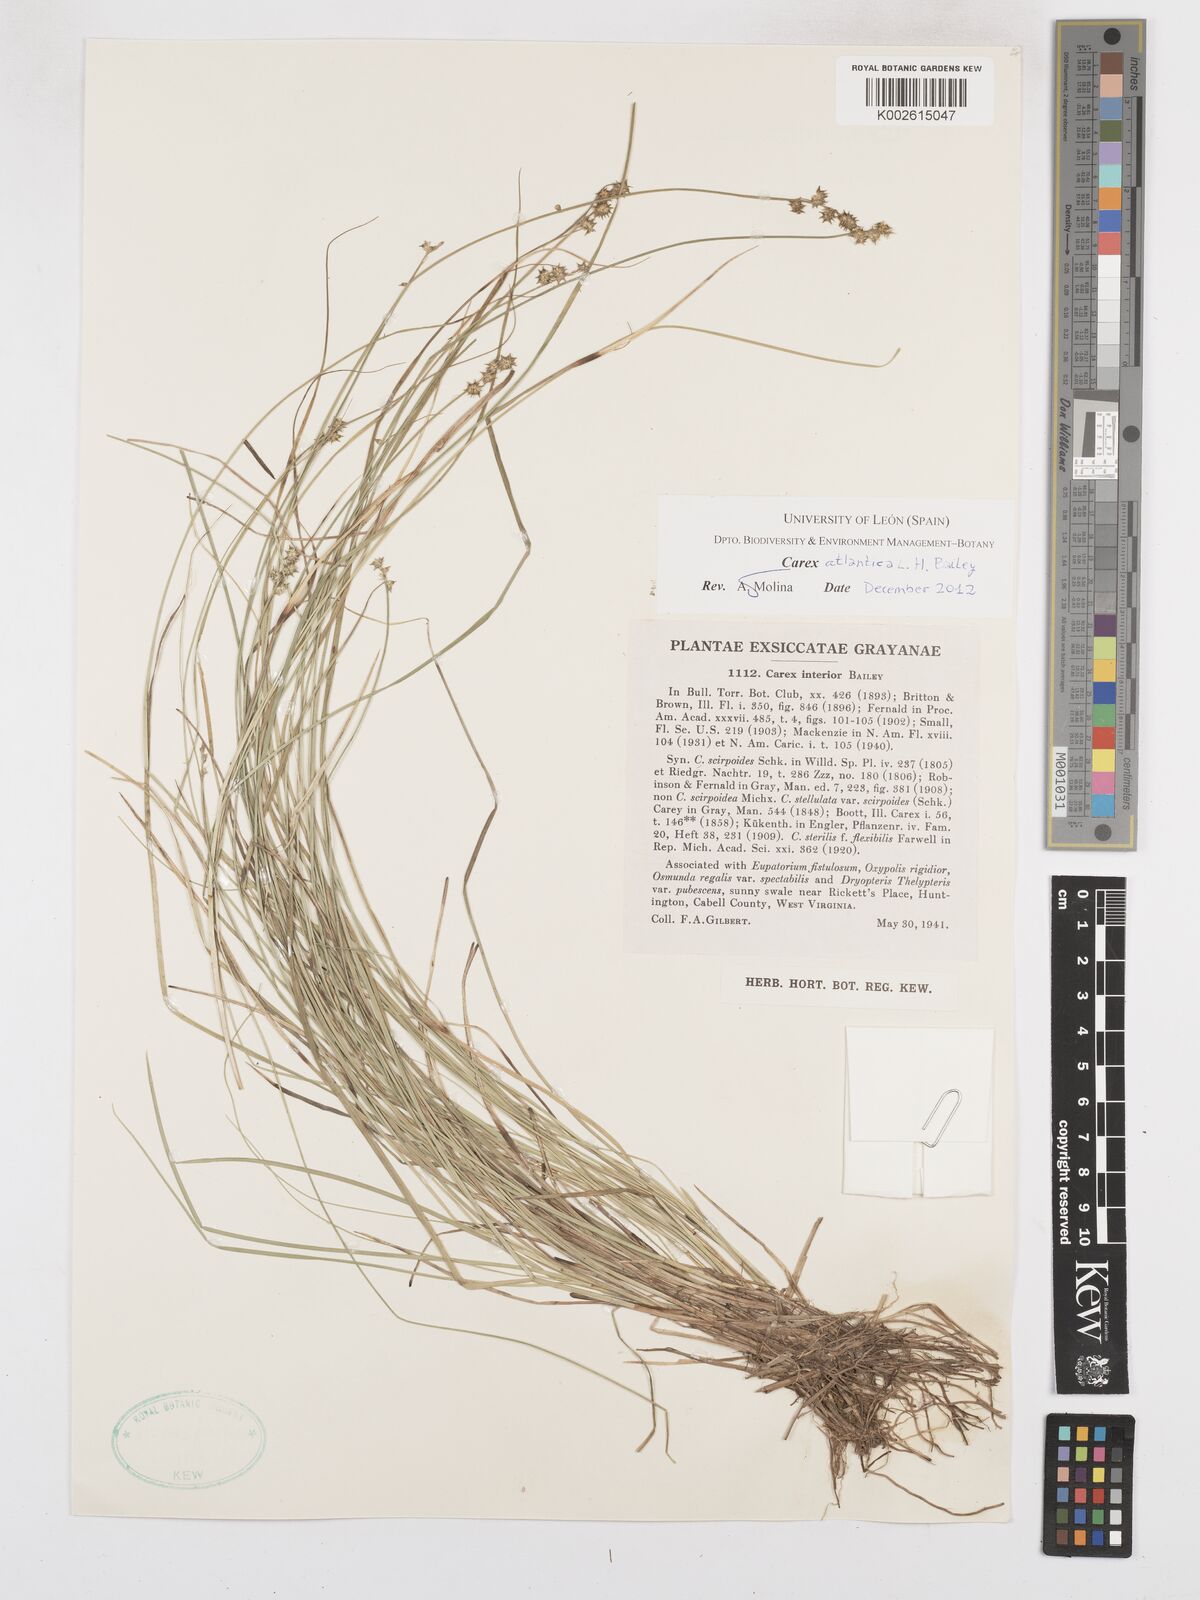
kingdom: Plantae
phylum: Tracheophyta
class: Liliopsida
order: Poales
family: Cyperaceae
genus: Carex
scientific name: Carex atlantica
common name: Atlantic sedge
